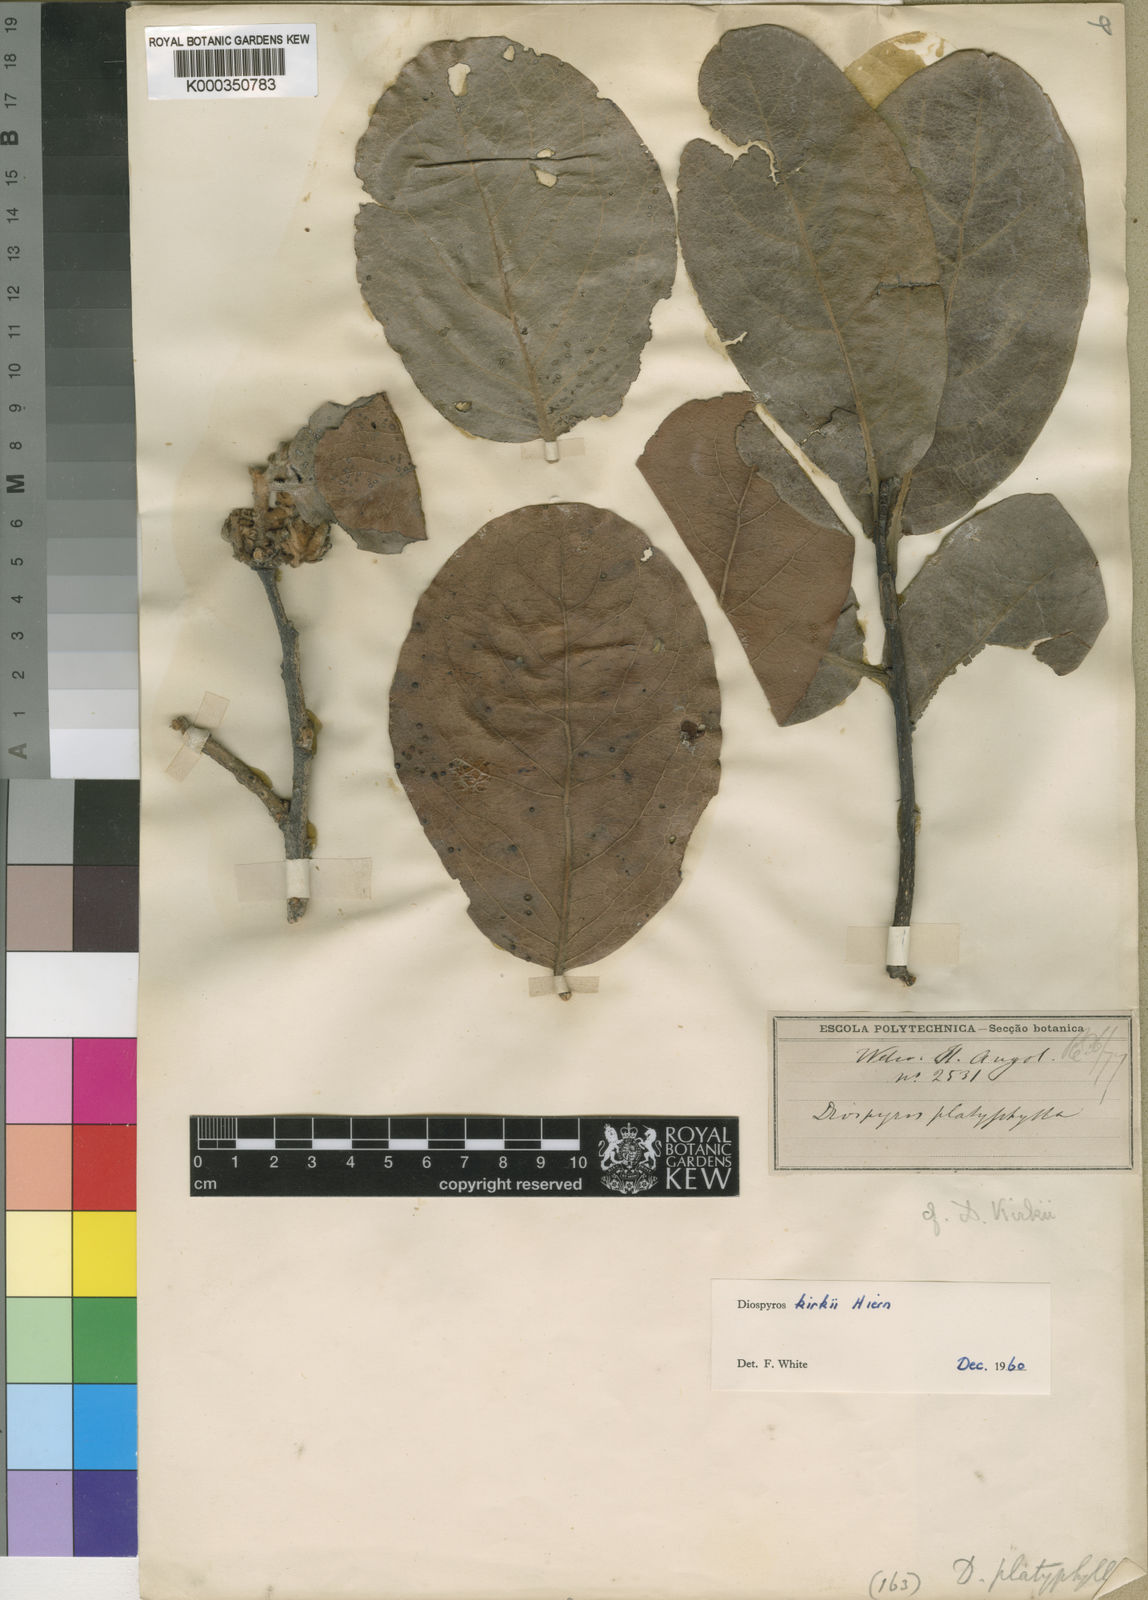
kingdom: Plantae
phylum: Tracheophyta
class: Magnoliopsida
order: Ericales
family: Ebenaceae
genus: Diospyros
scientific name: Diospyros kirkii
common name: Large-leaved jackal berry
